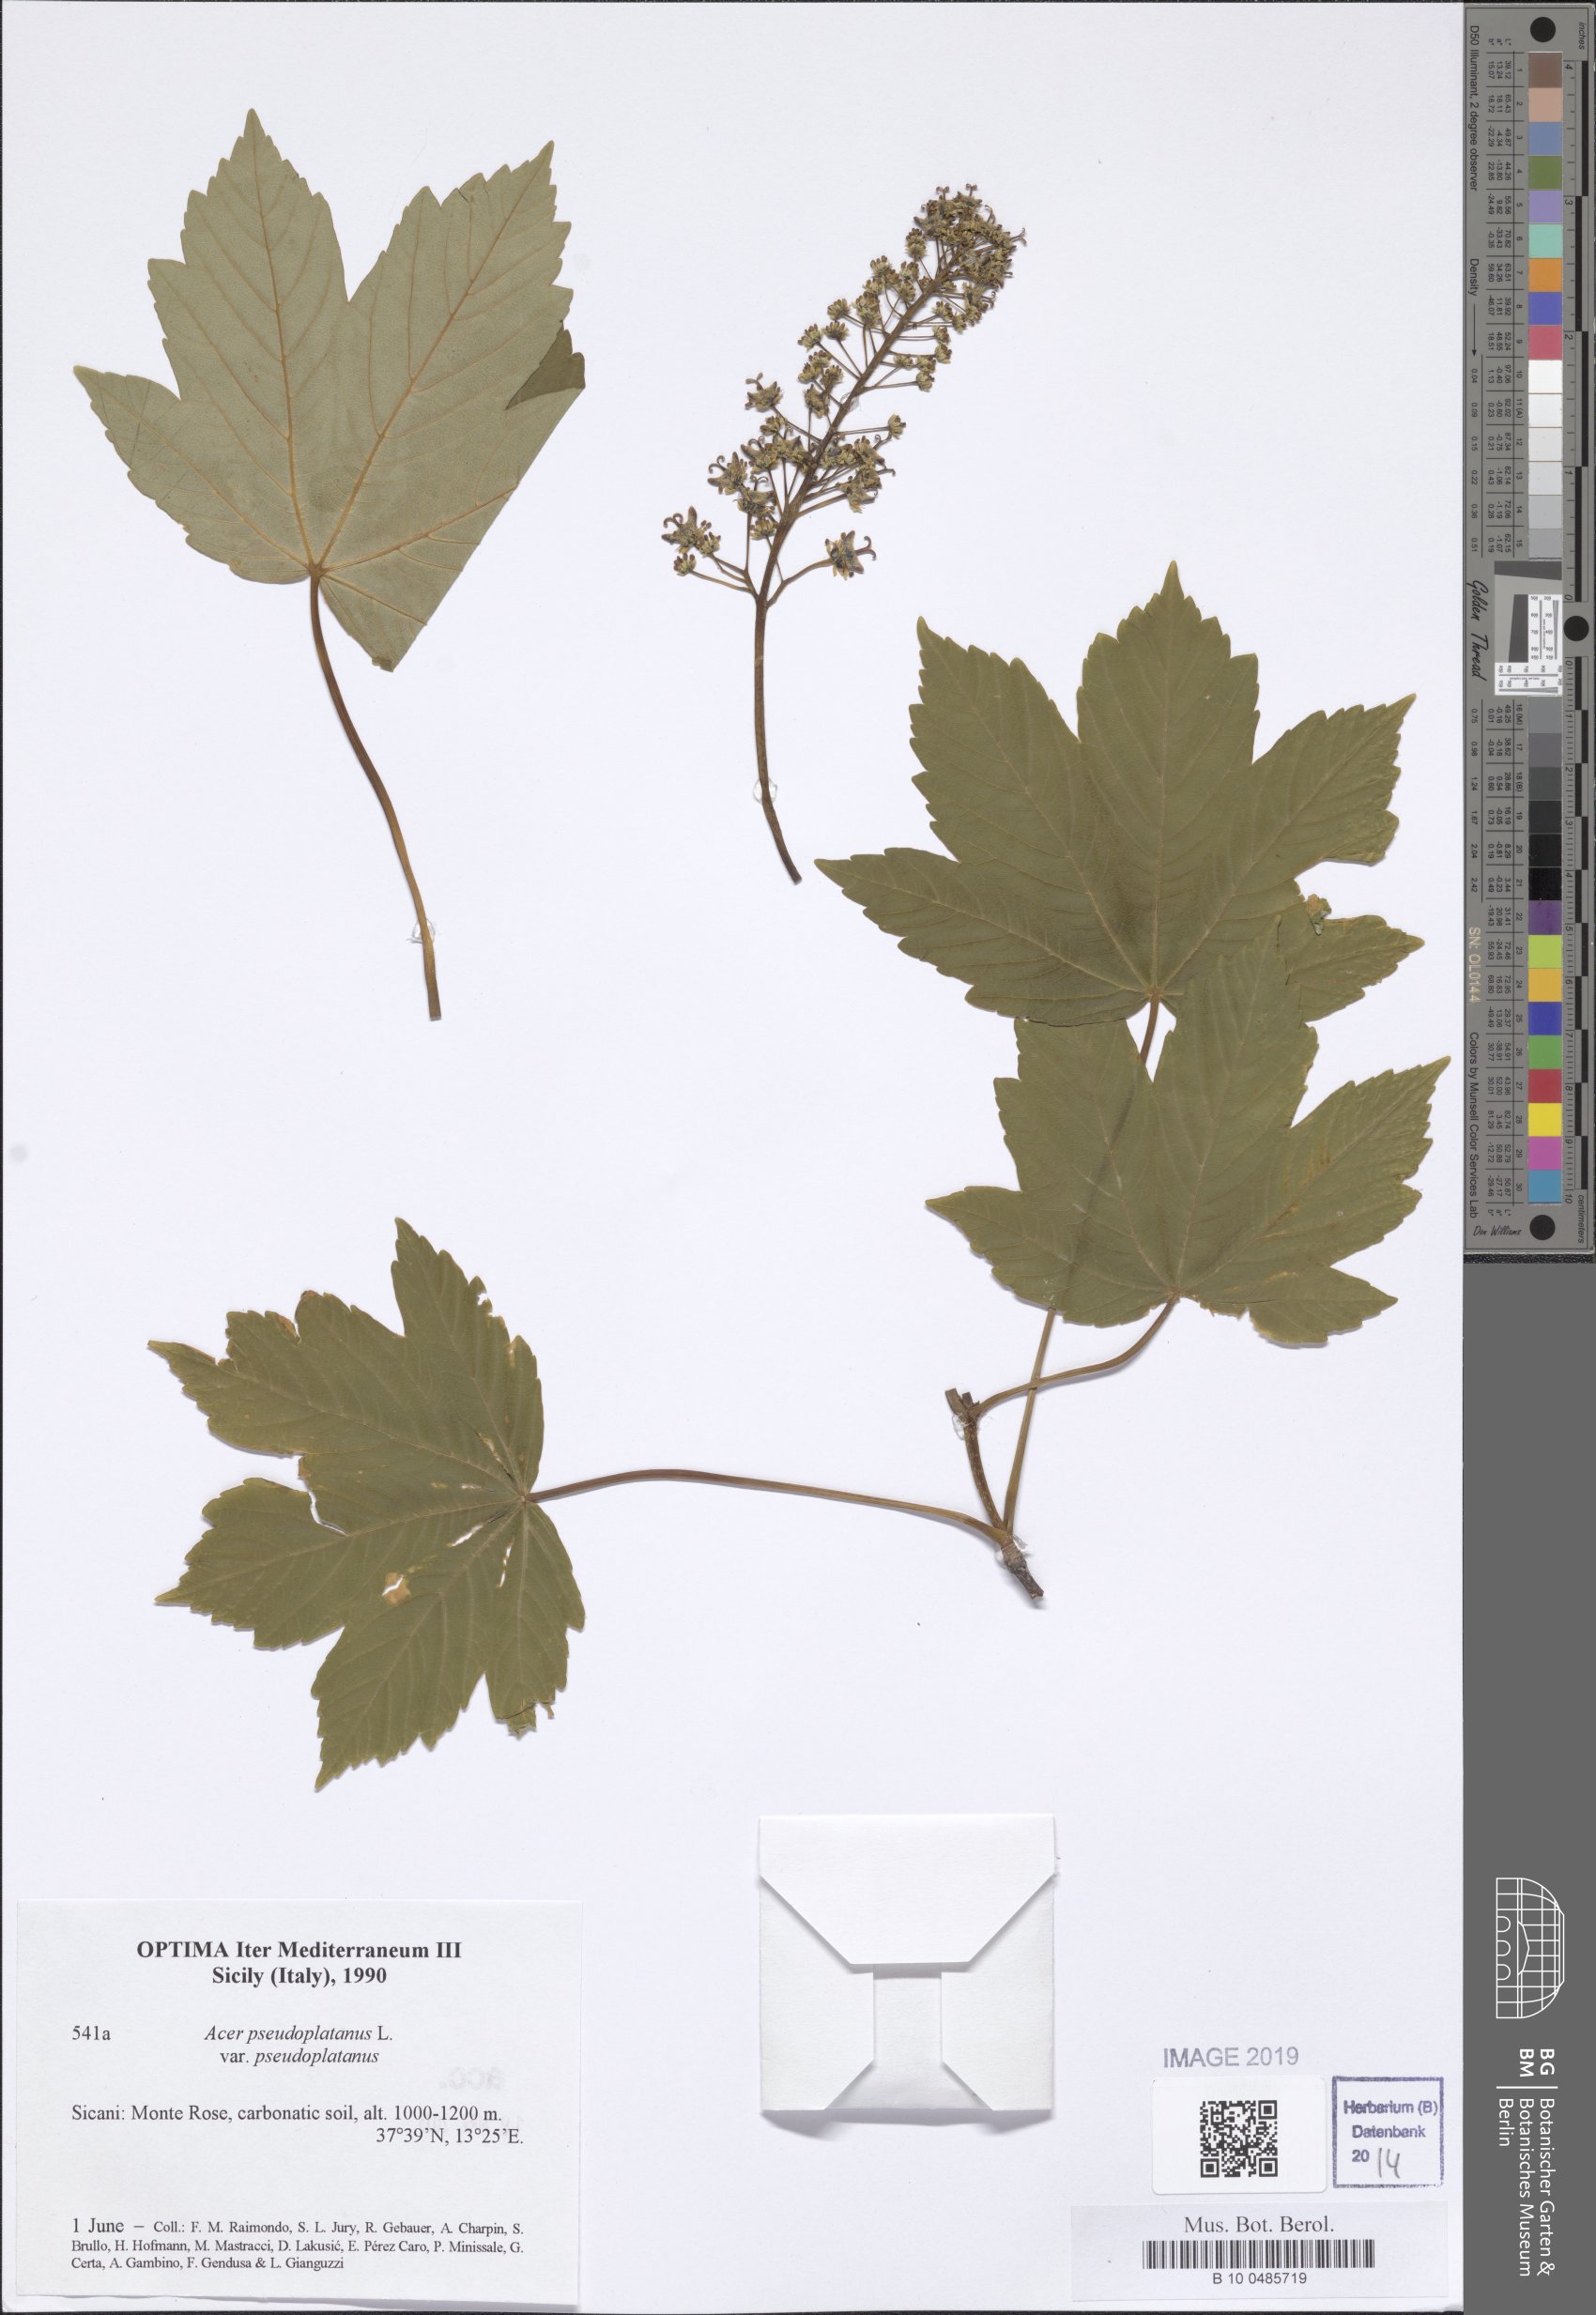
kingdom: Plantae
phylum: Tracheophyta
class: Magnoliopsida
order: Sapindales
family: Sapindaceae
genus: Acer
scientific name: Acer pseudoplatanus
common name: Sycamore
